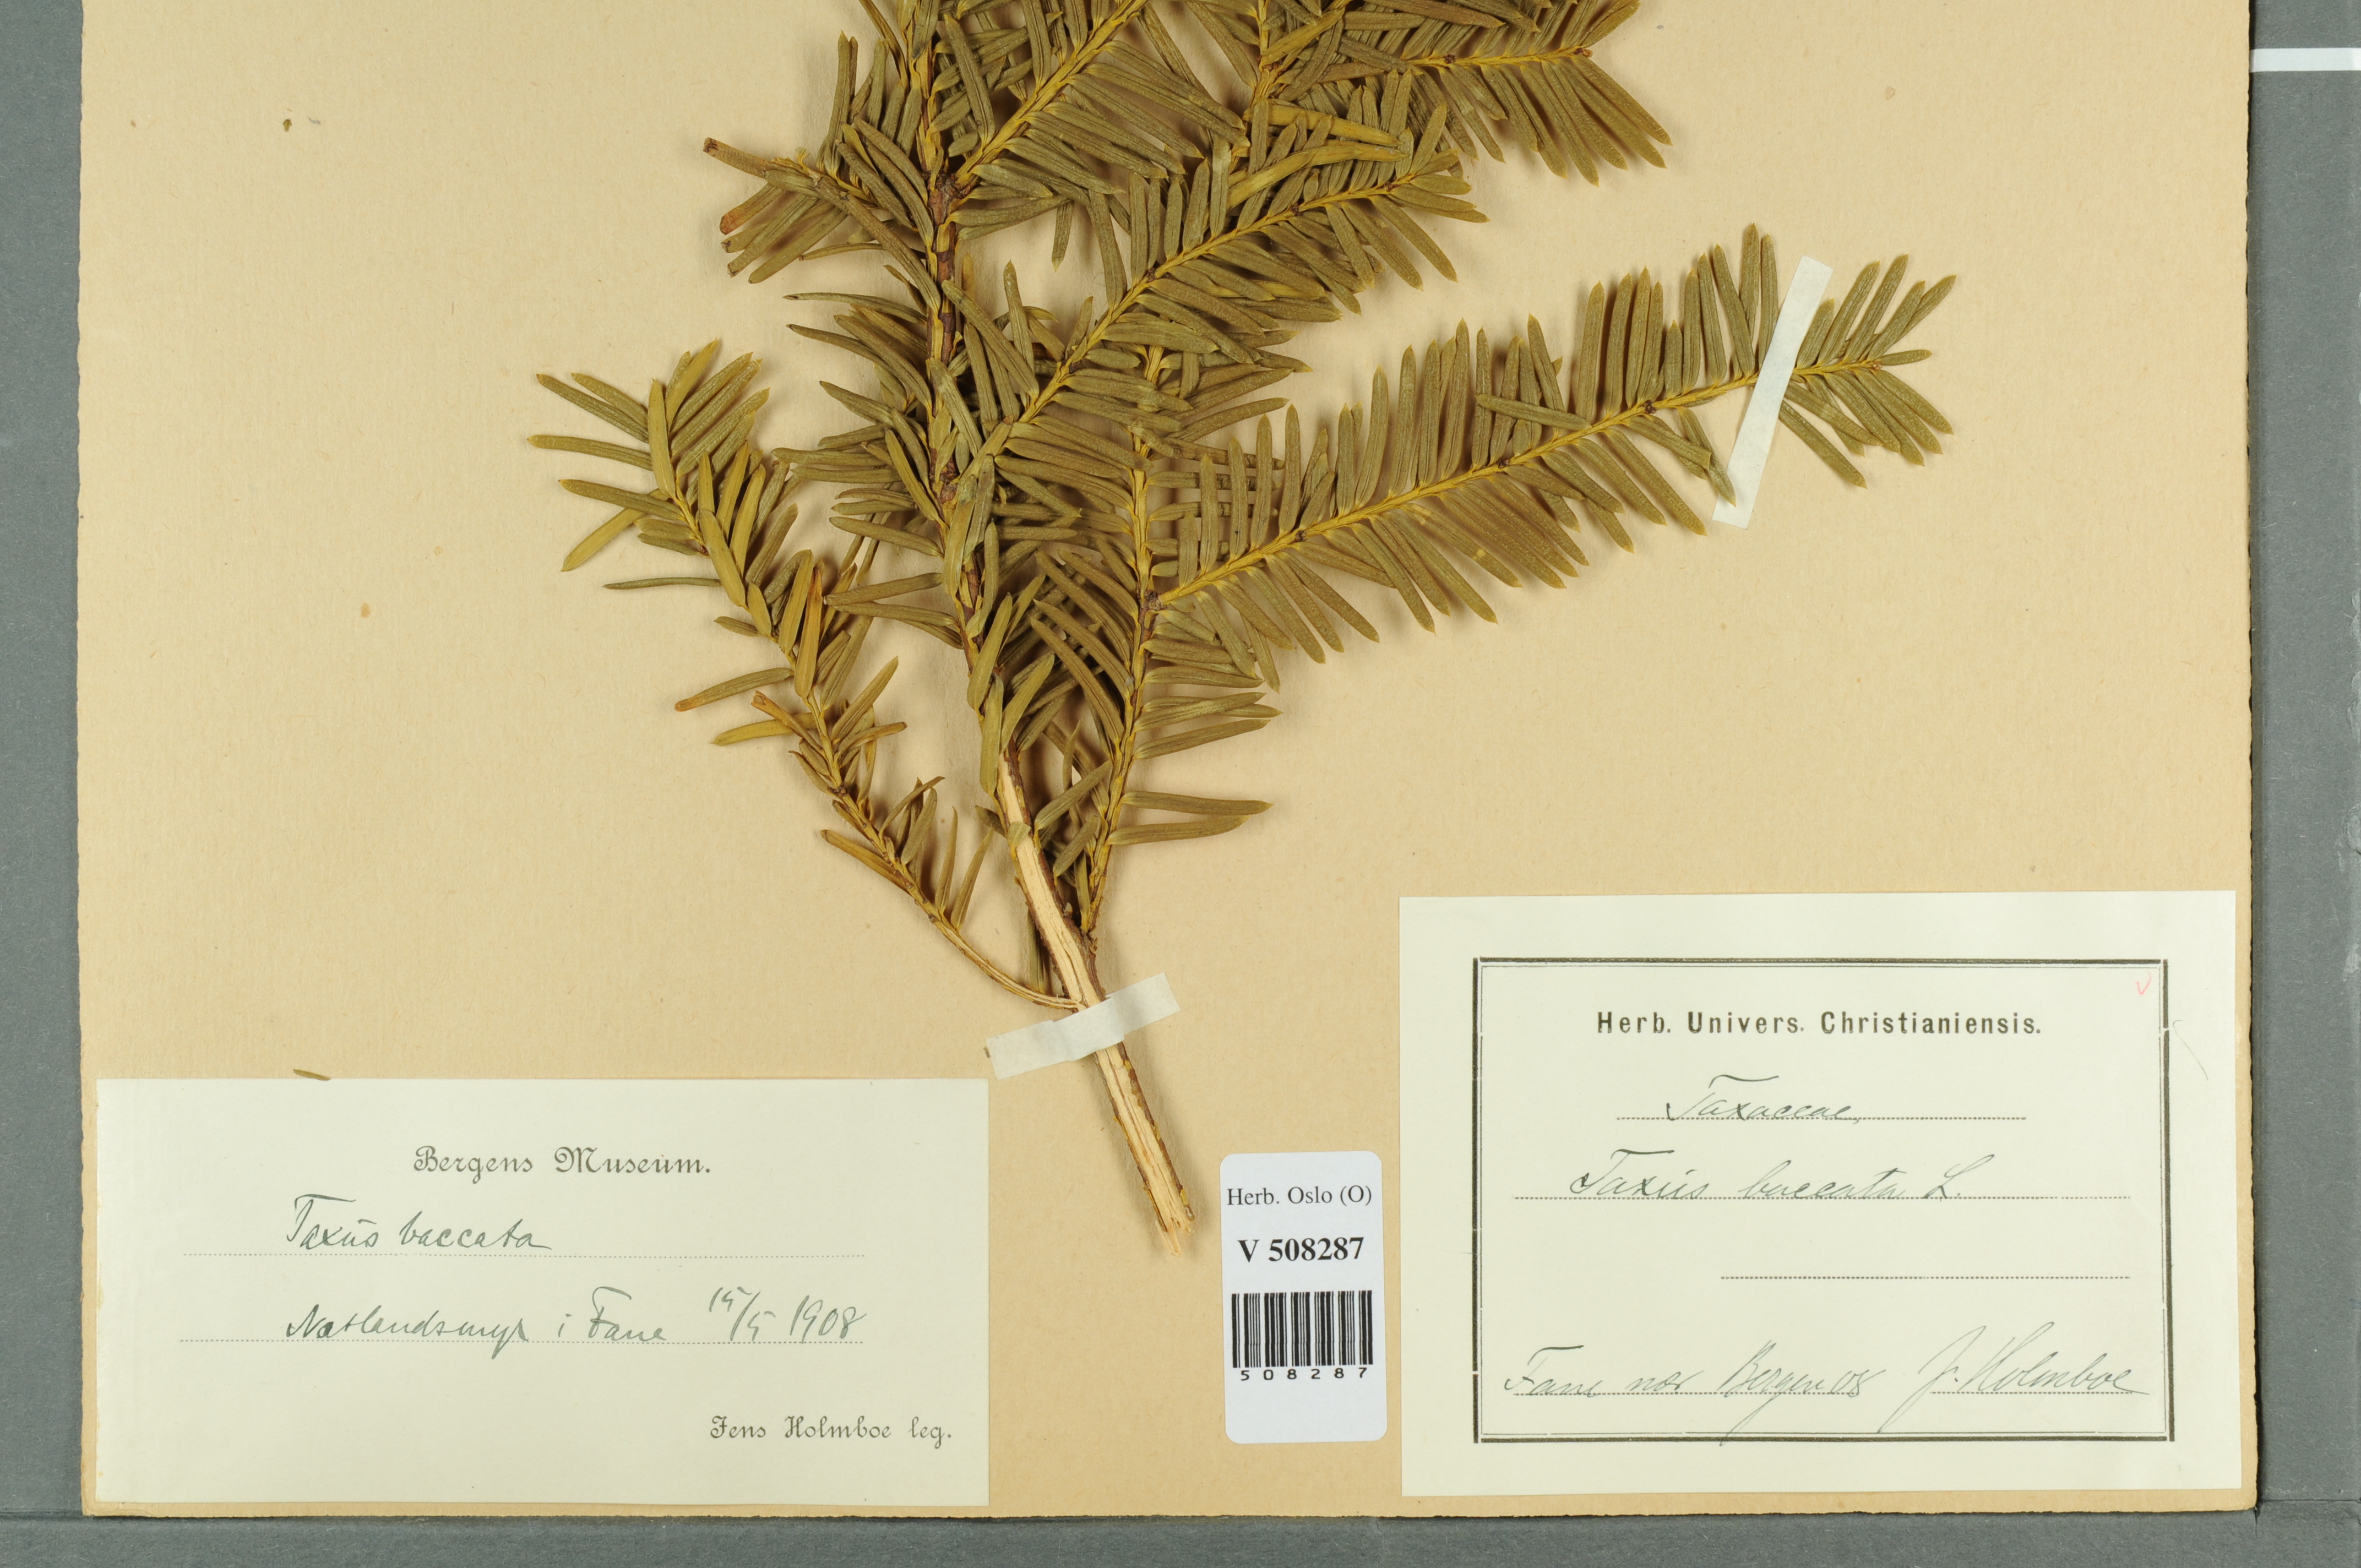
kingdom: Plantae
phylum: Tracheophyta
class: Pinopsida
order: Pinales
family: Taxaceae
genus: Taxus
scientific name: Taxus baccata
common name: Yew
